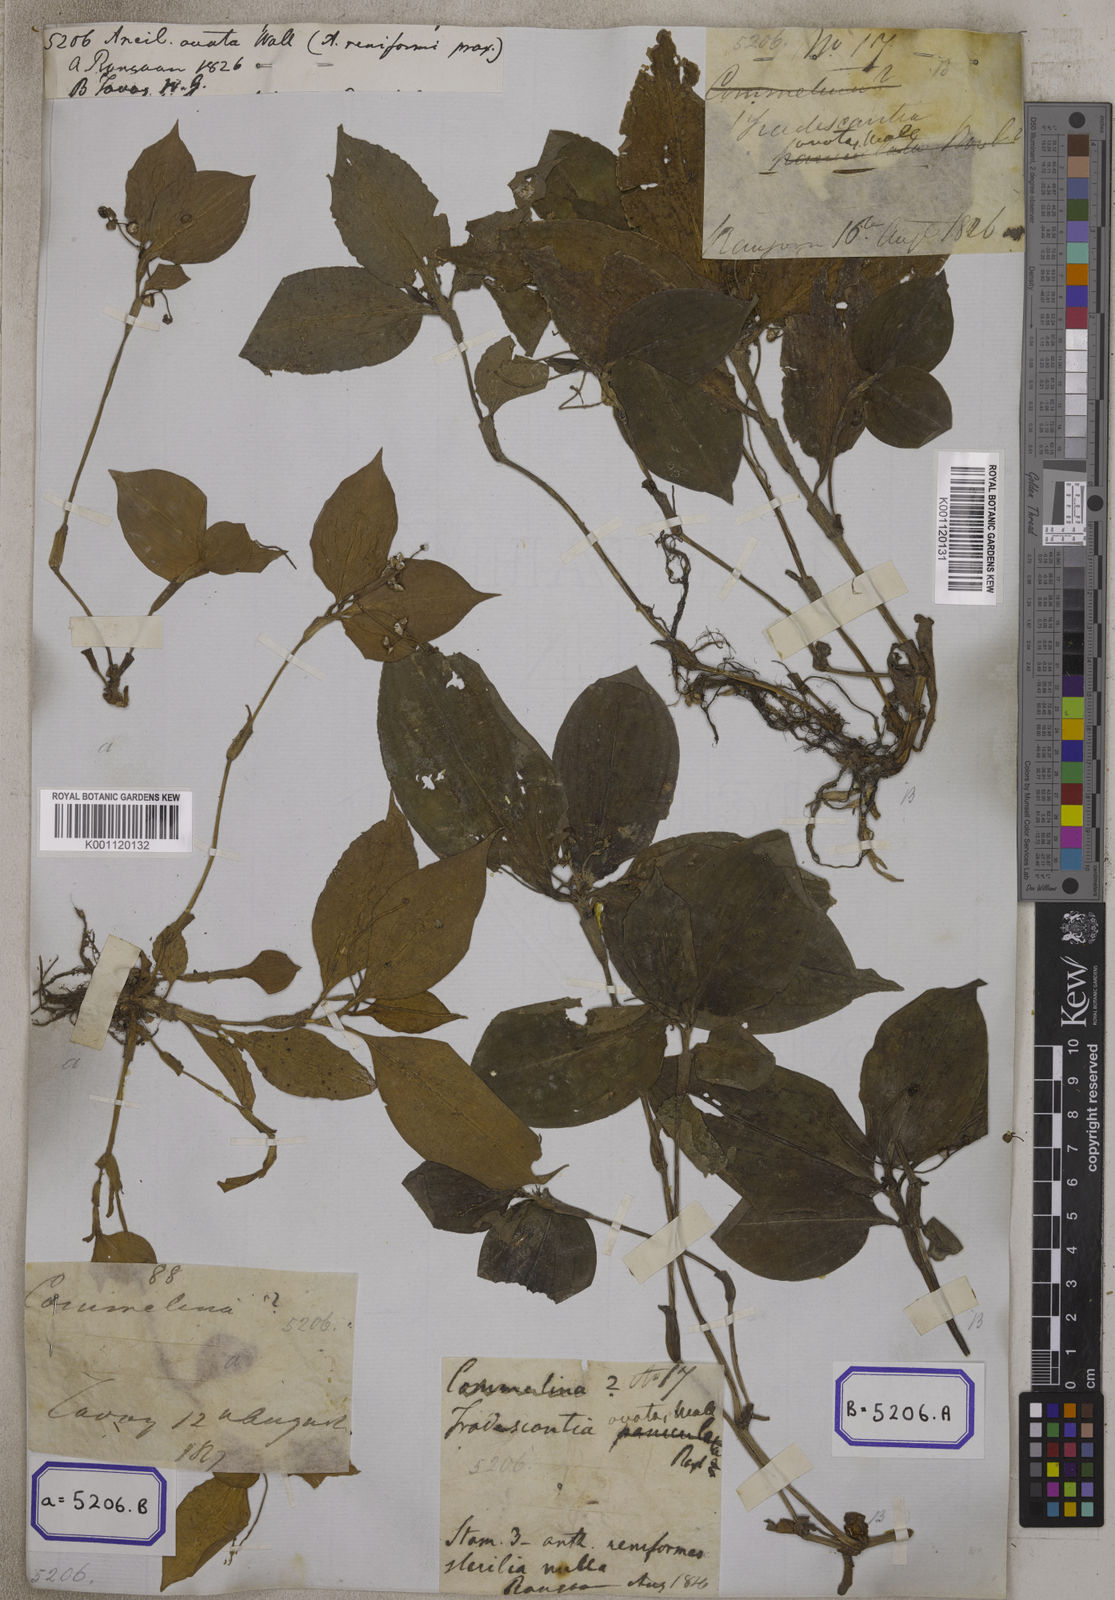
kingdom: Plantae
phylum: Tracheophyta
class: Liliopsida
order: Commelinales
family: Commelinaceae
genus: Aneilema
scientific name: Aneilema
